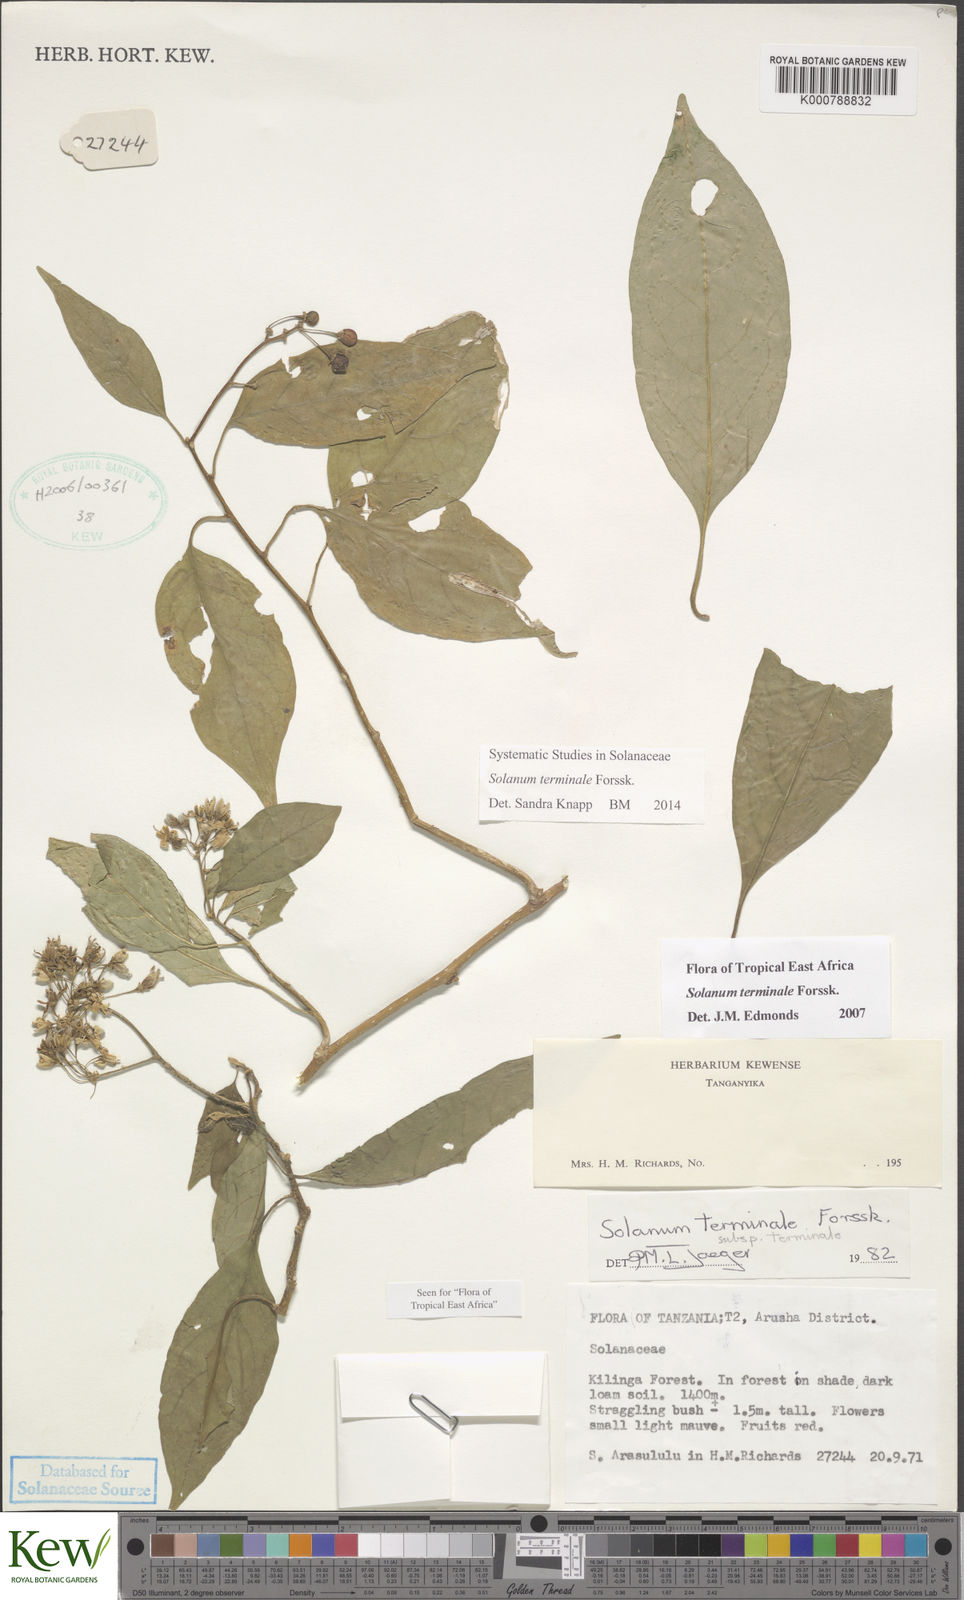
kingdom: Plantae
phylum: Tracheophyta
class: Magnoliopsida
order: Solanales
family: Solanaceae
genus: Solanum
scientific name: Solanum terminale
